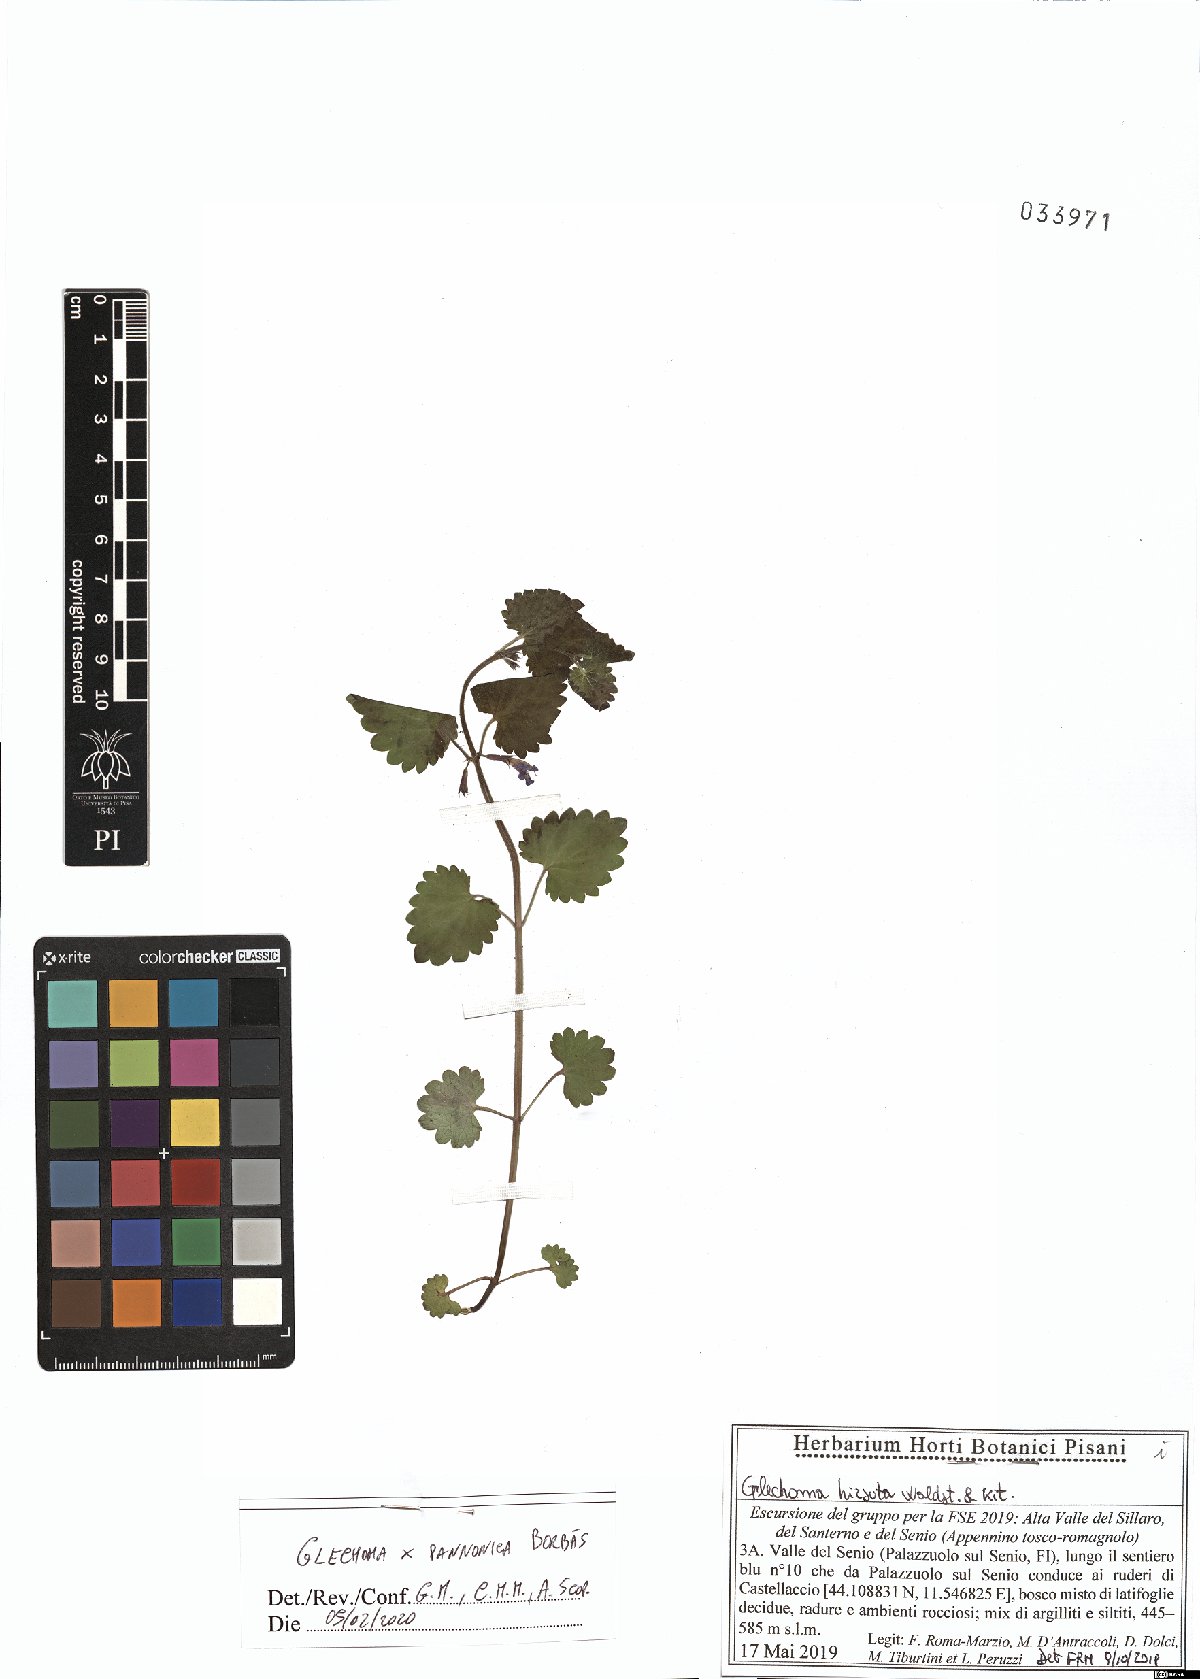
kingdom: Plantae
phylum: Tracheophyta
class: Magnoliopsida
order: Lamiales
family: Lamiaceae
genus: Glechoma
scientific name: Glechoma pannonica
